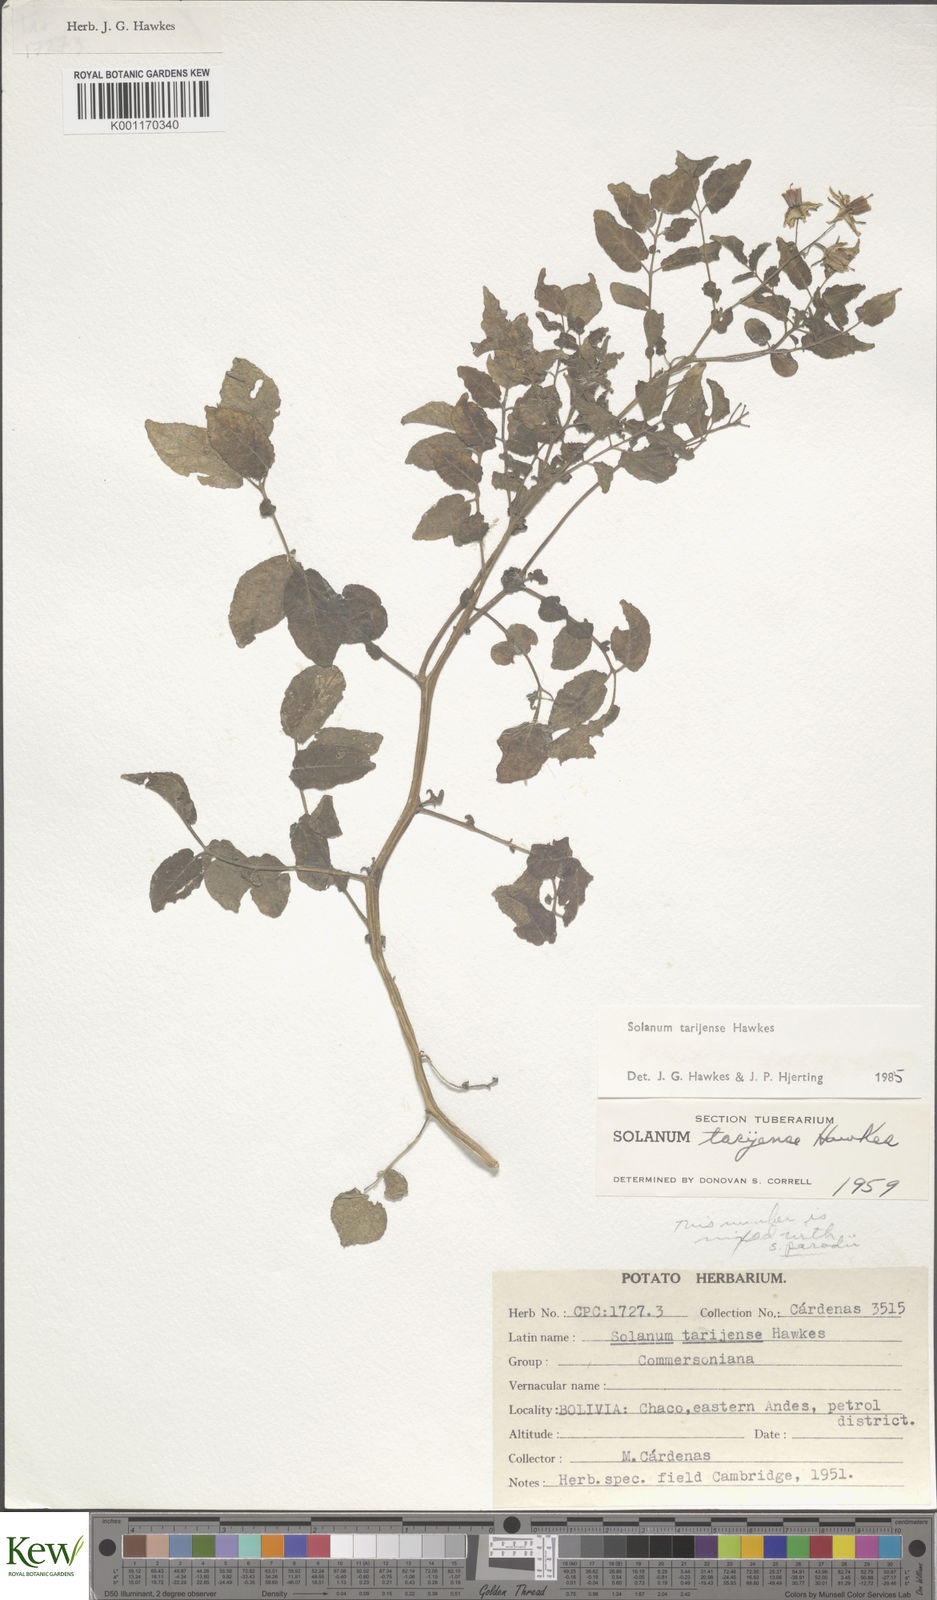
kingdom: Plantae
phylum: Tracheophyta
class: Magnoliopsida
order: Solanales
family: Solanaceae
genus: Solanum
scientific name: Solanum tarijense
